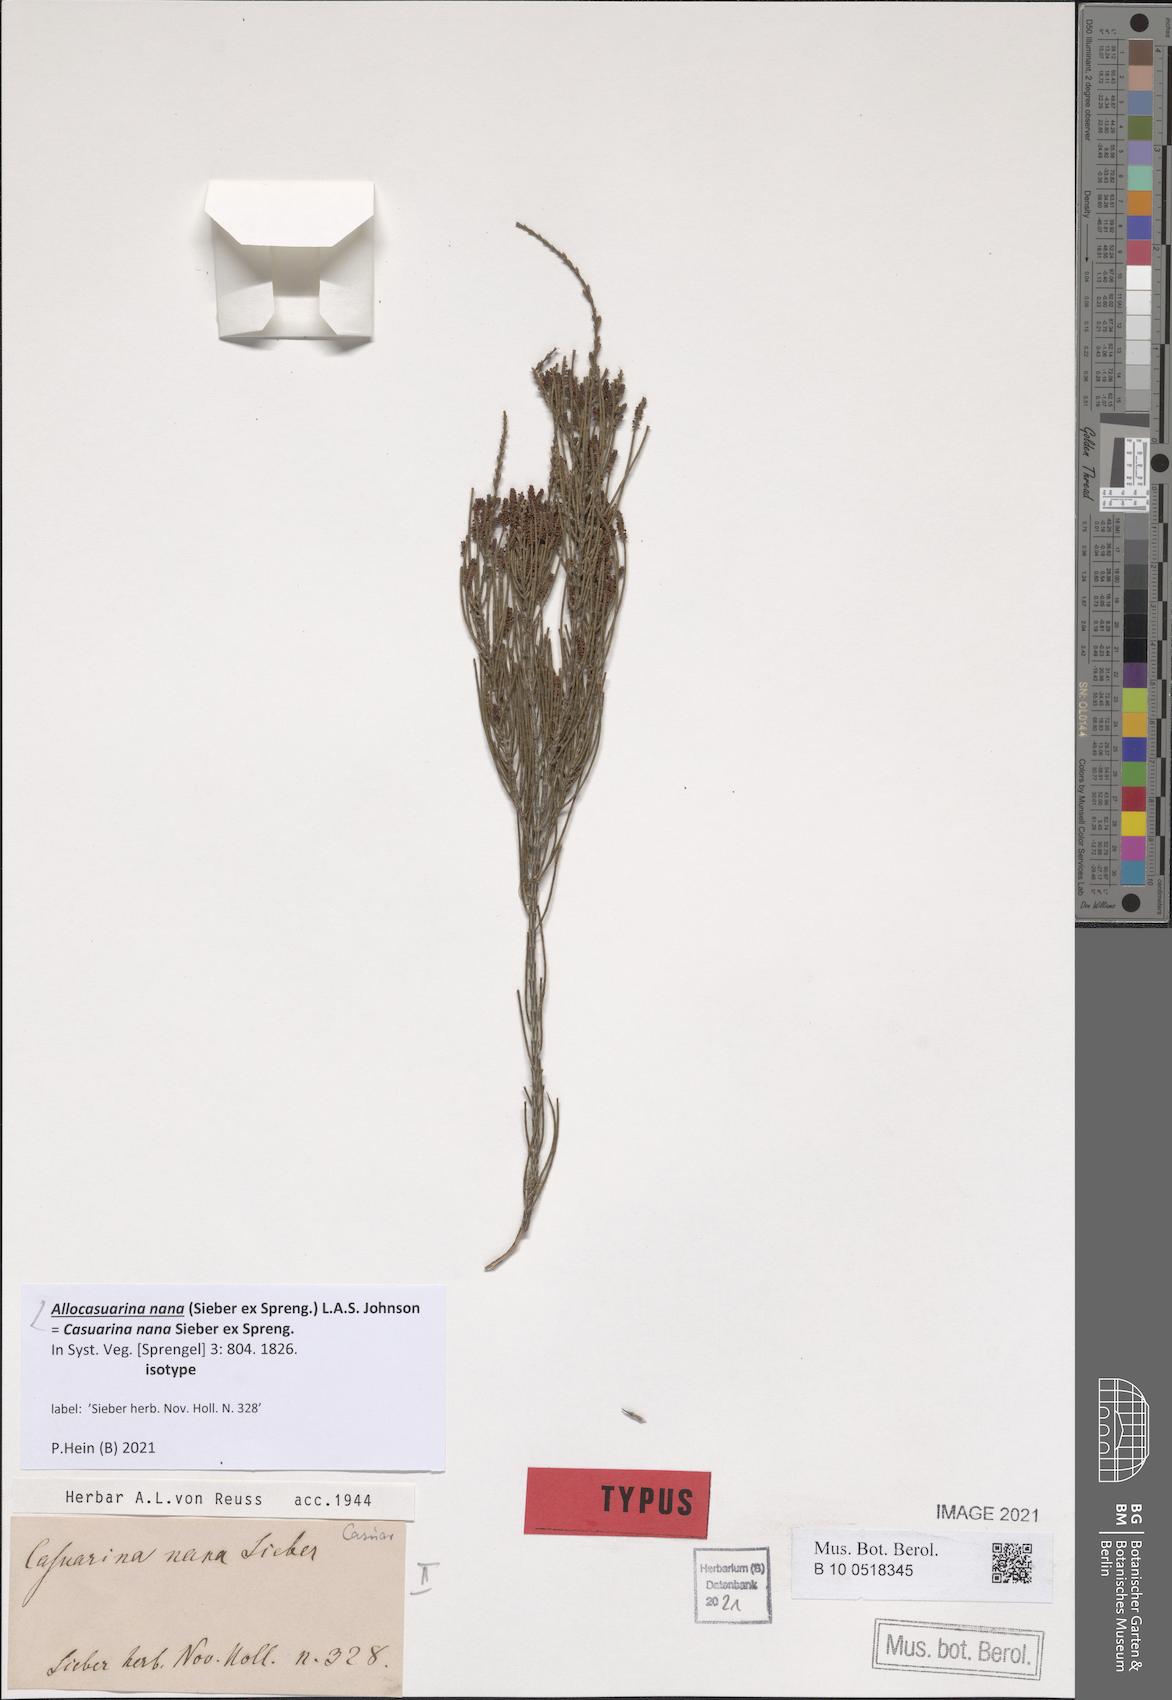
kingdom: Plantae
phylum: Tracheophyta
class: Magnoliopsida
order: Fagales
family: Casuarinaceae
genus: Allocasuarina
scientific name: Allocasuarina nana
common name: Stunted she-oak
